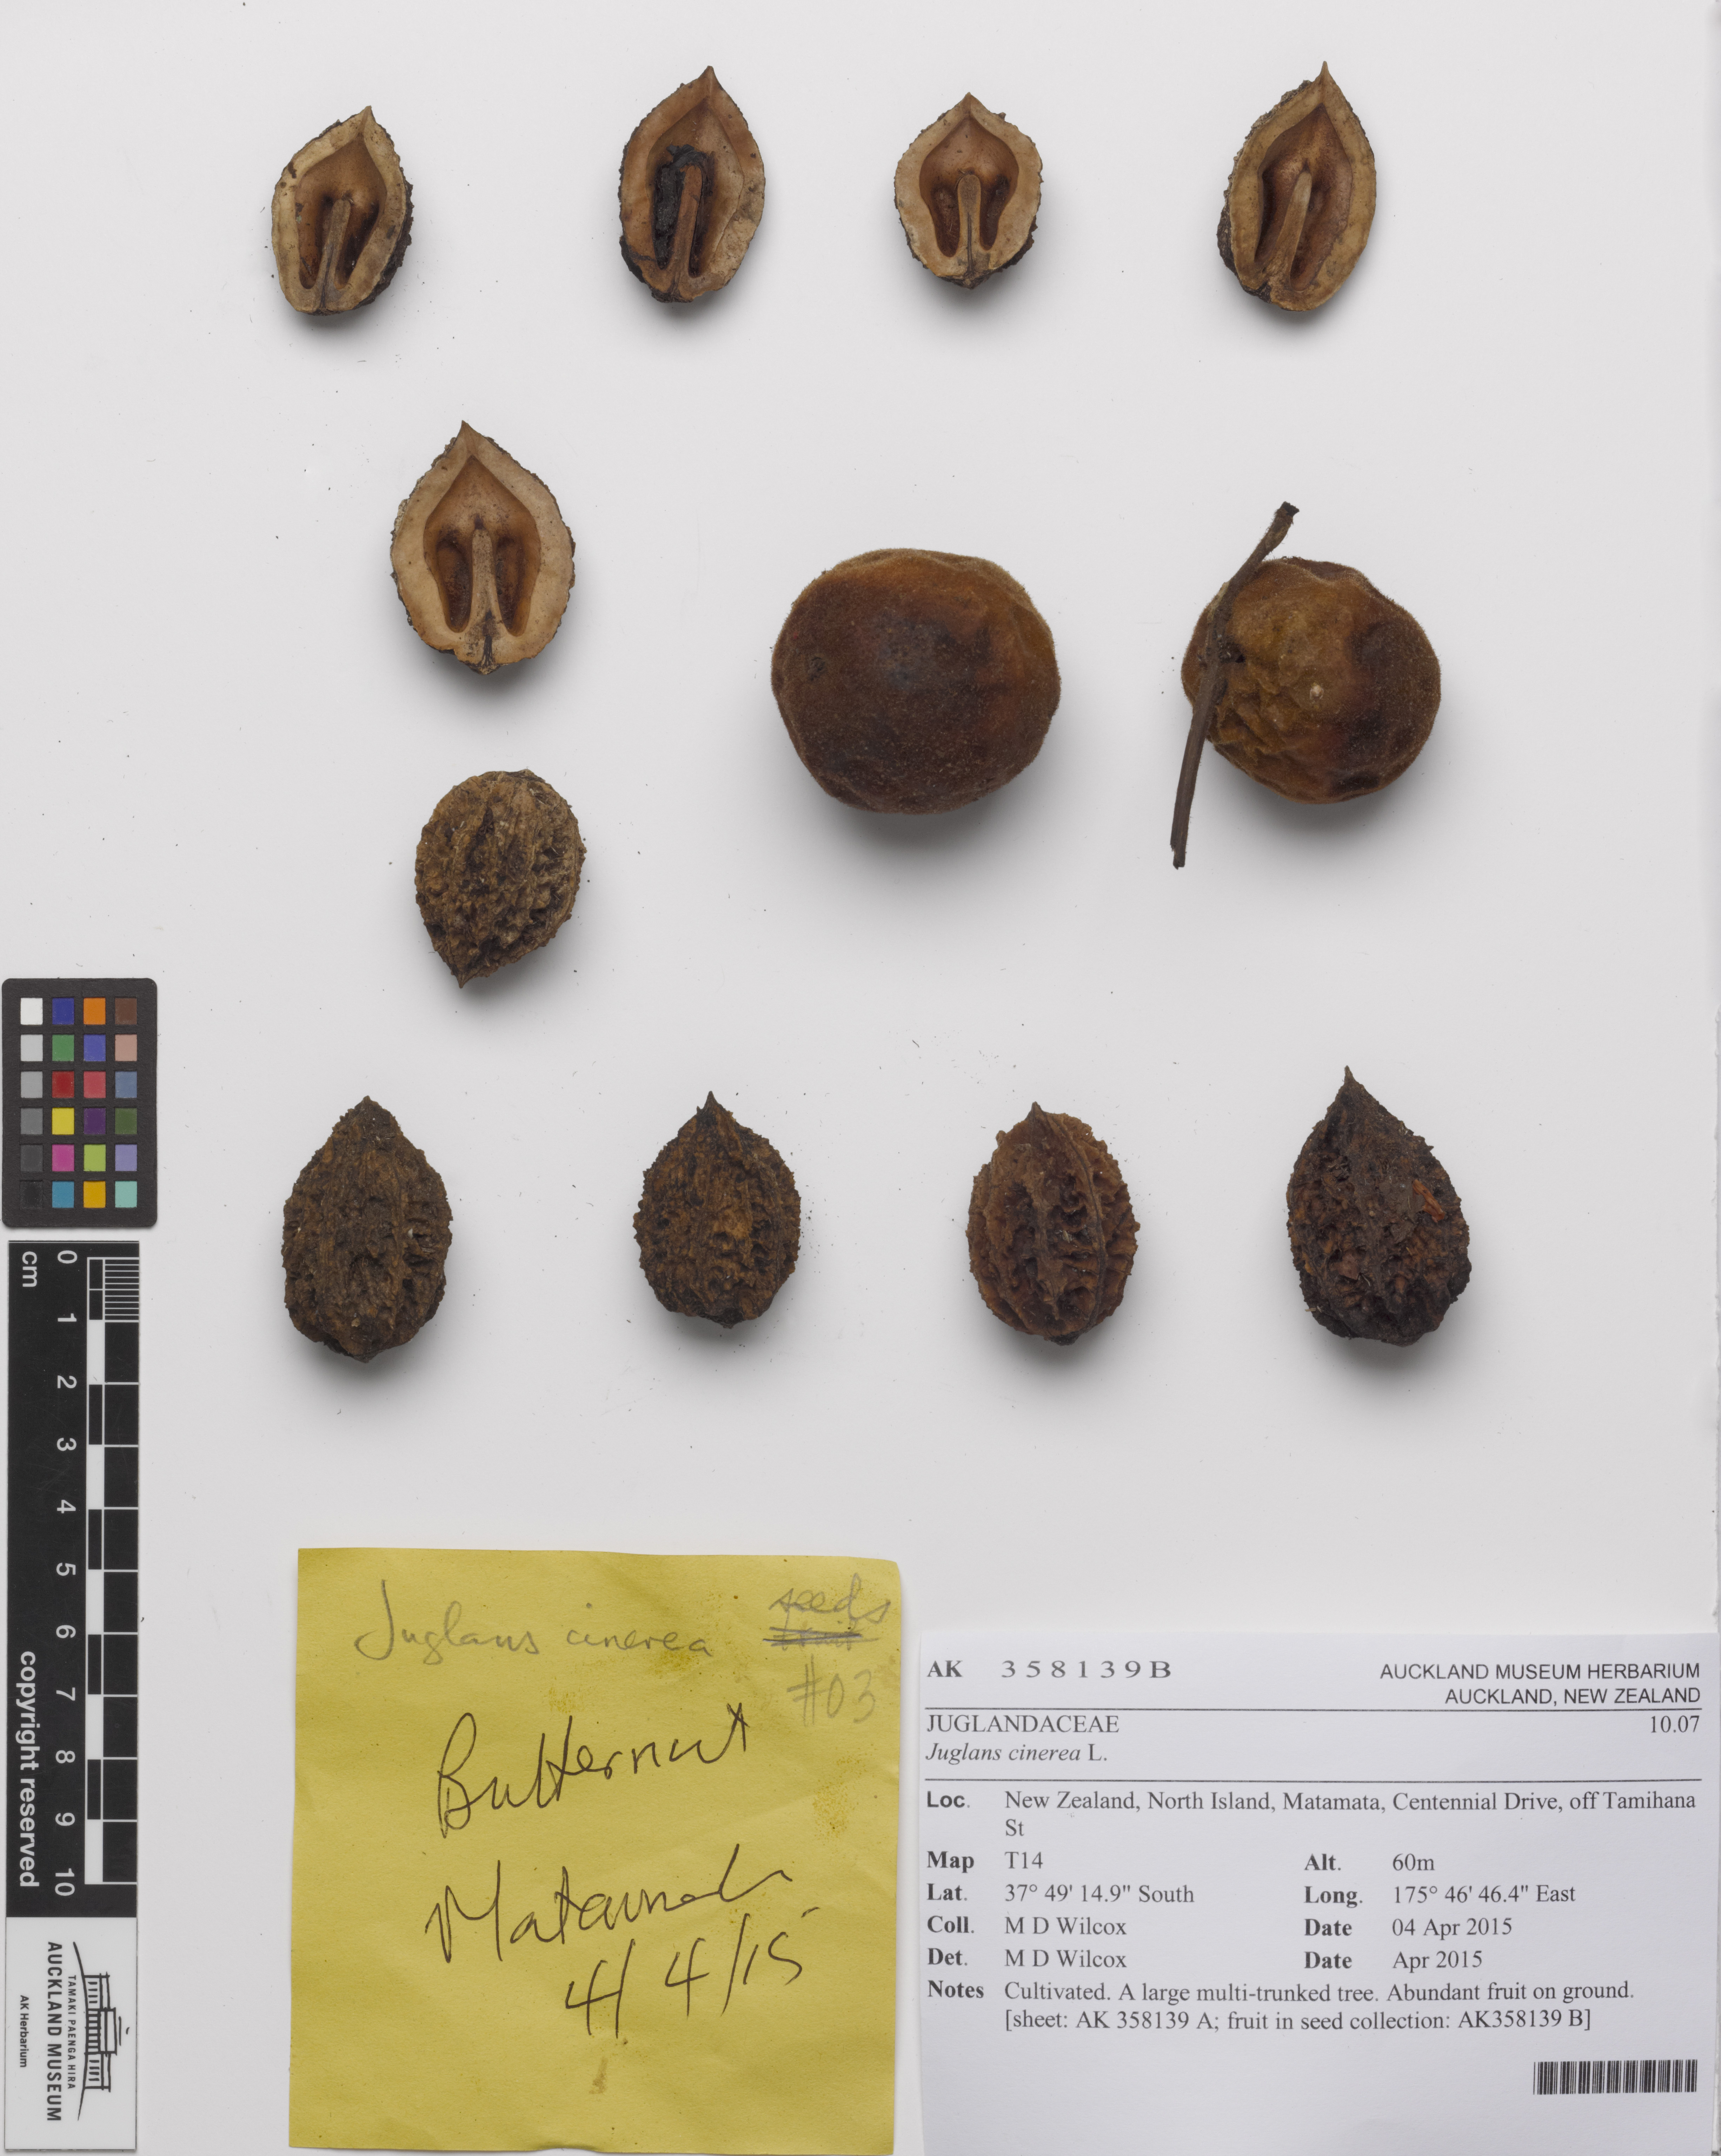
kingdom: Plantae
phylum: Tracheophyta
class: Magnoliopsida
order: Fagales
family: Juglandaceae
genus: Juglans
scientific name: Juglans cinerea
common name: Butternut
